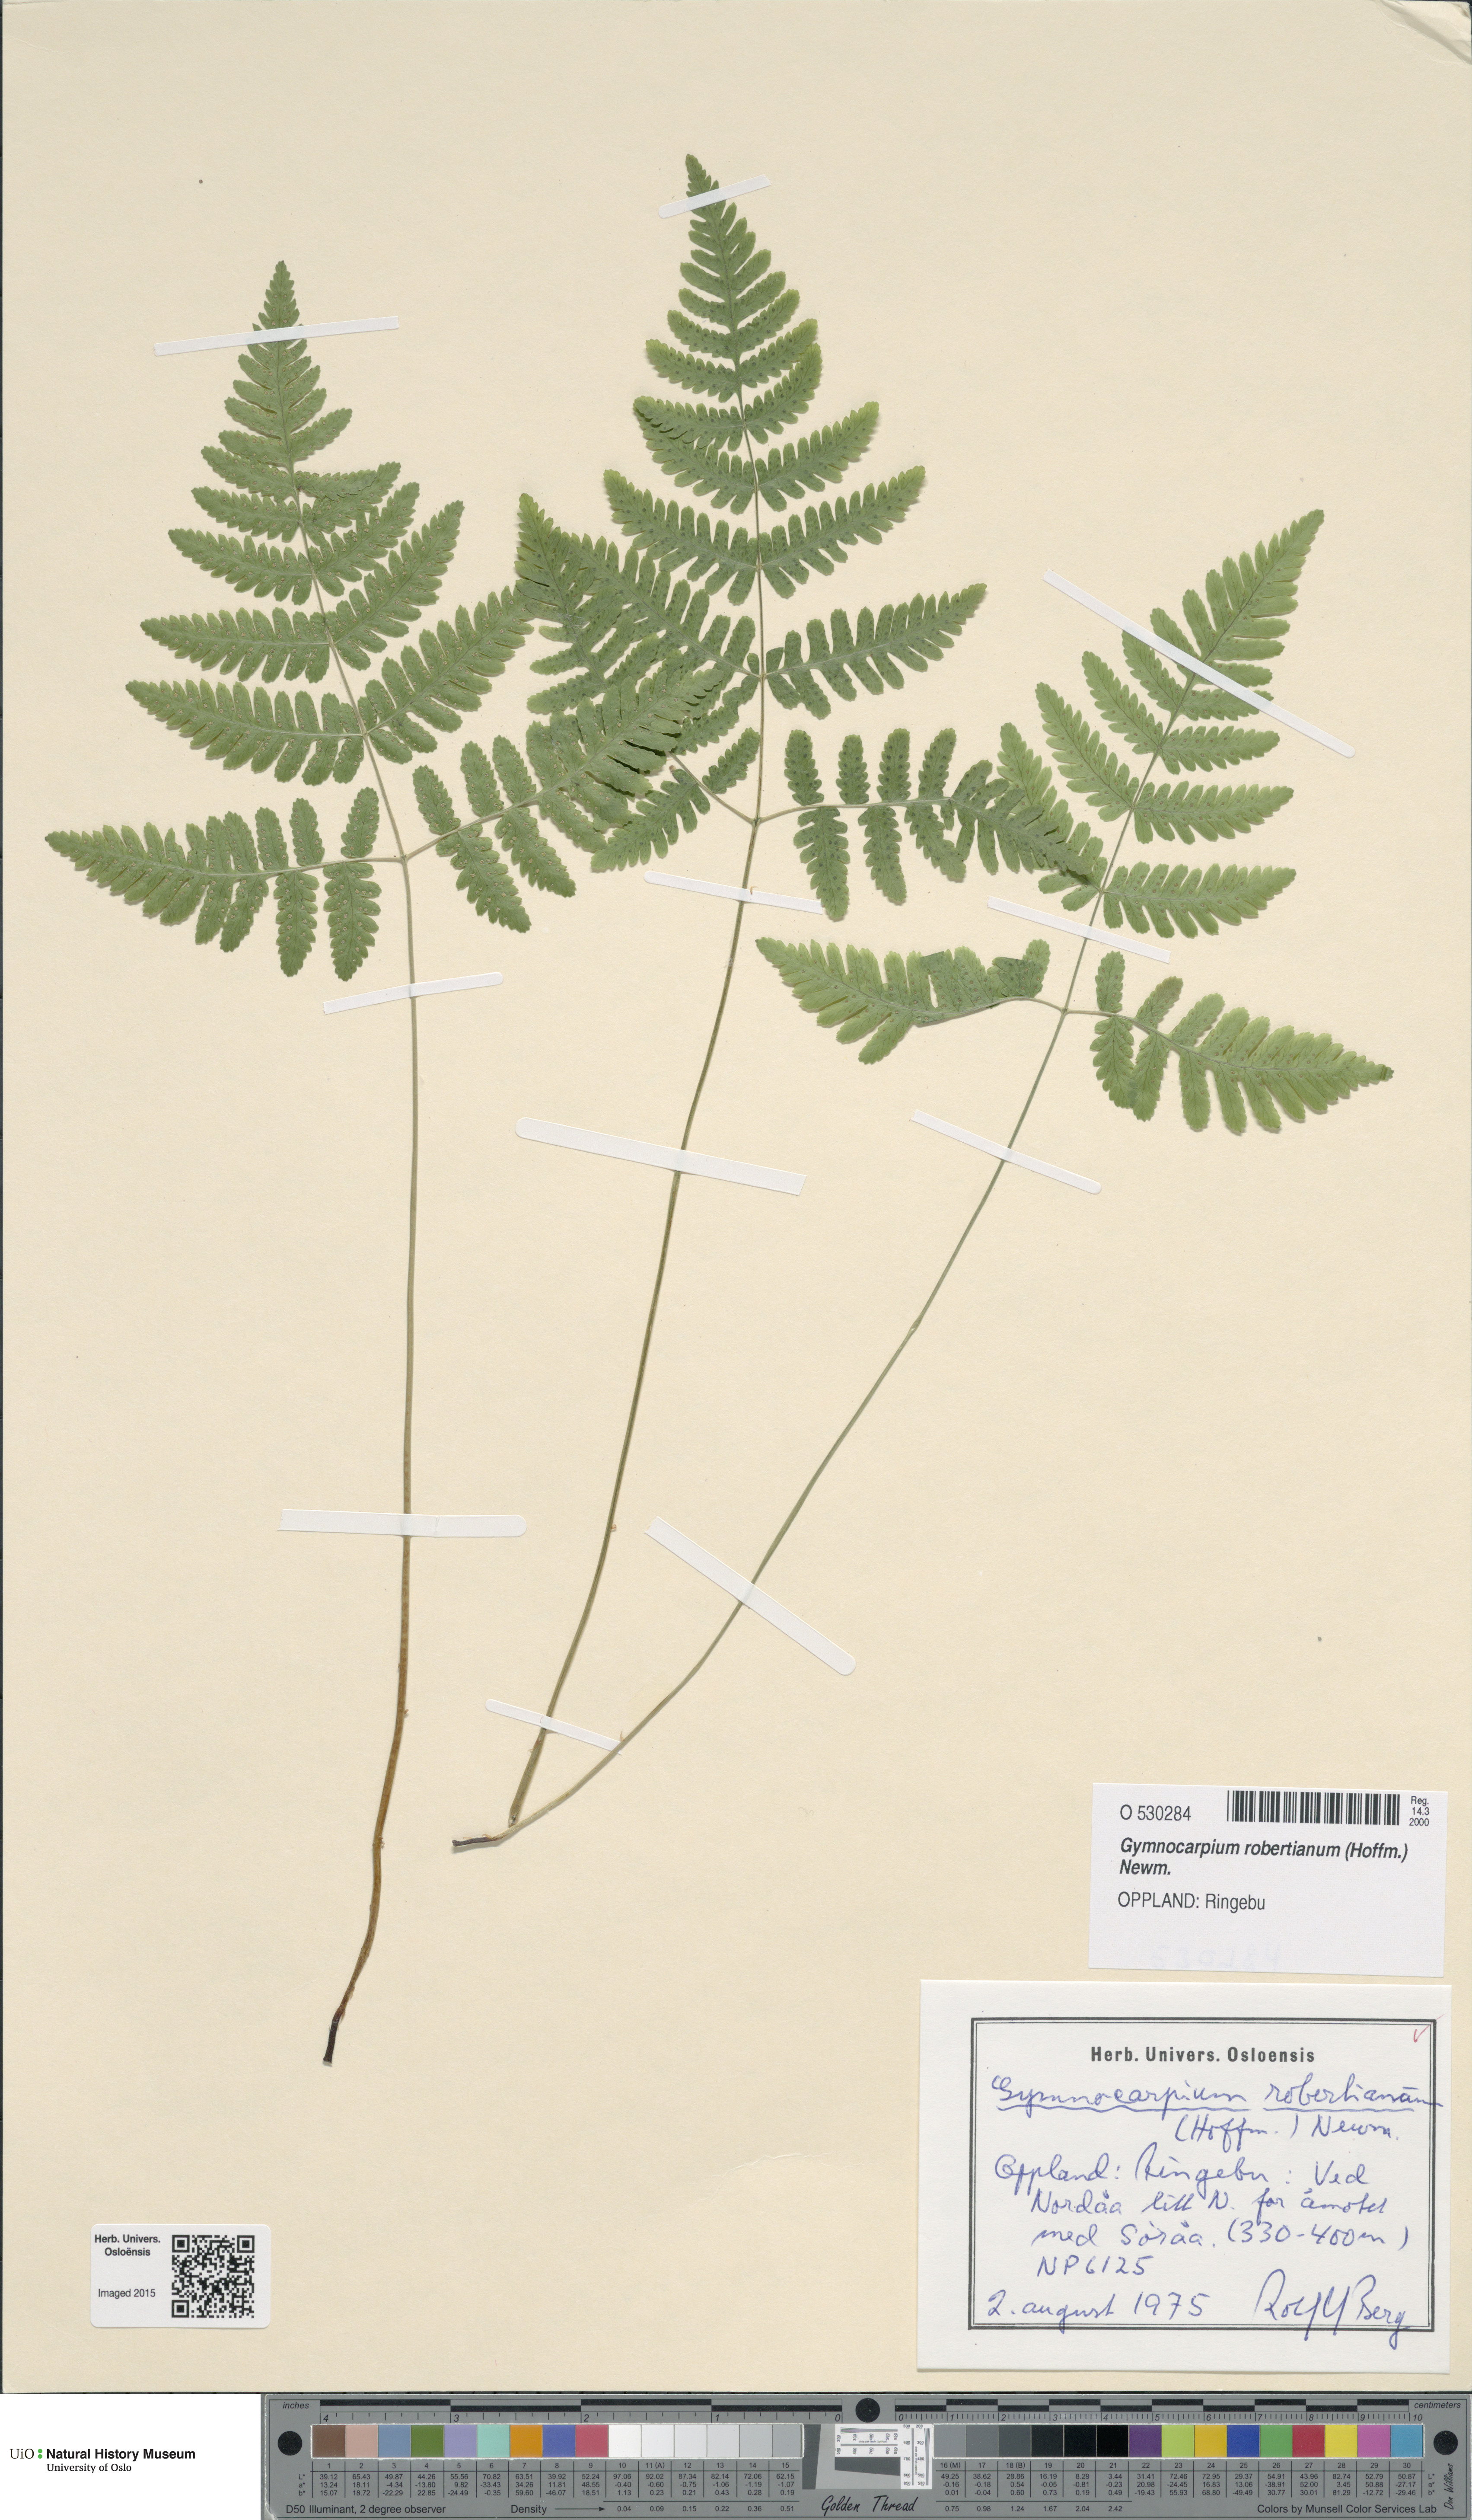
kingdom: Plantae
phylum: Tracheophyta
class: Polypodiopsida
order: Polypodiales
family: Cystopteridaceae
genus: Gymnocarpium
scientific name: Gymnocarpium robertianum
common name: Limestone fern
